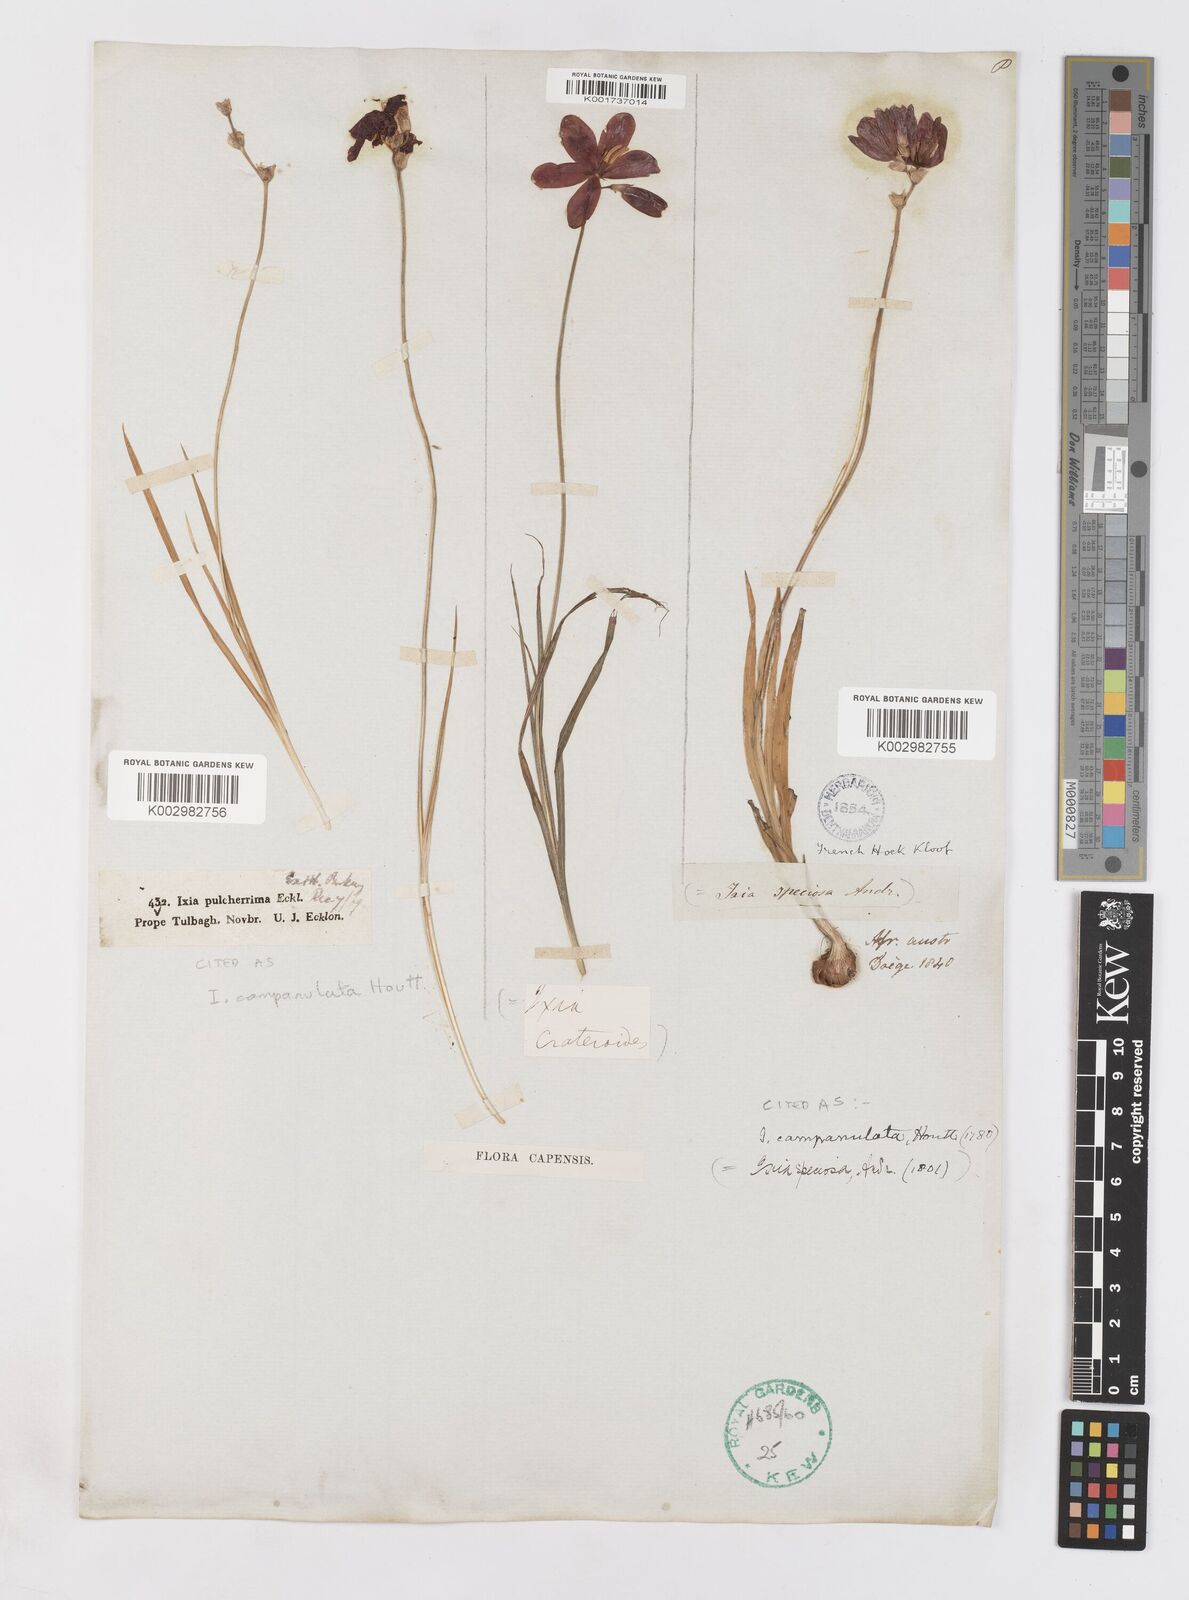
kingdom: Plantae
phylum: Tracheophyta
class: Liliopsida
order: Asparagales
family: Iridaceae
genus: Ixia
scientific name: Ixia campanulata
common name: Red corn-lily
